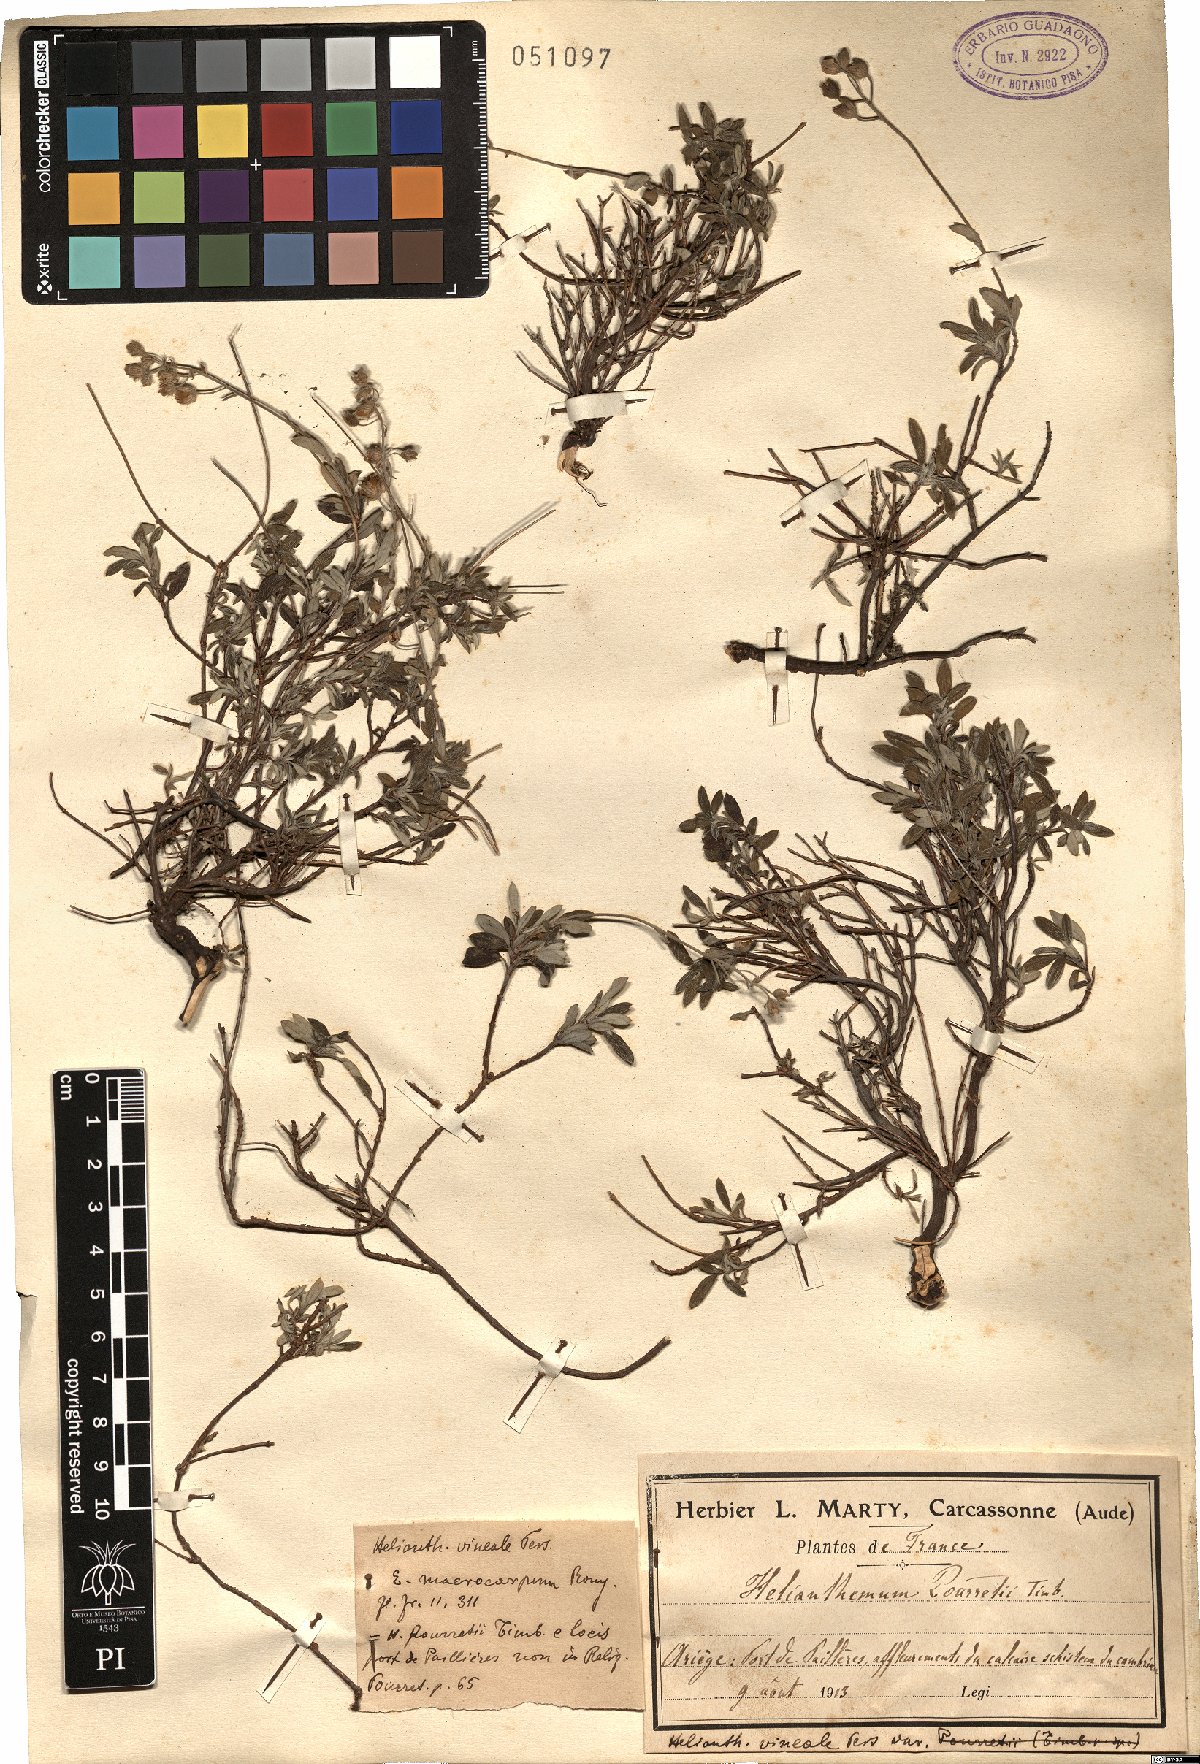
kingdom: Plantae
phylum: Tracheophyta
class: Magnoliopsida
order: Malvales
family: Cistaceae
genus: Helianthemum
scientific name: Helianthemum canum
